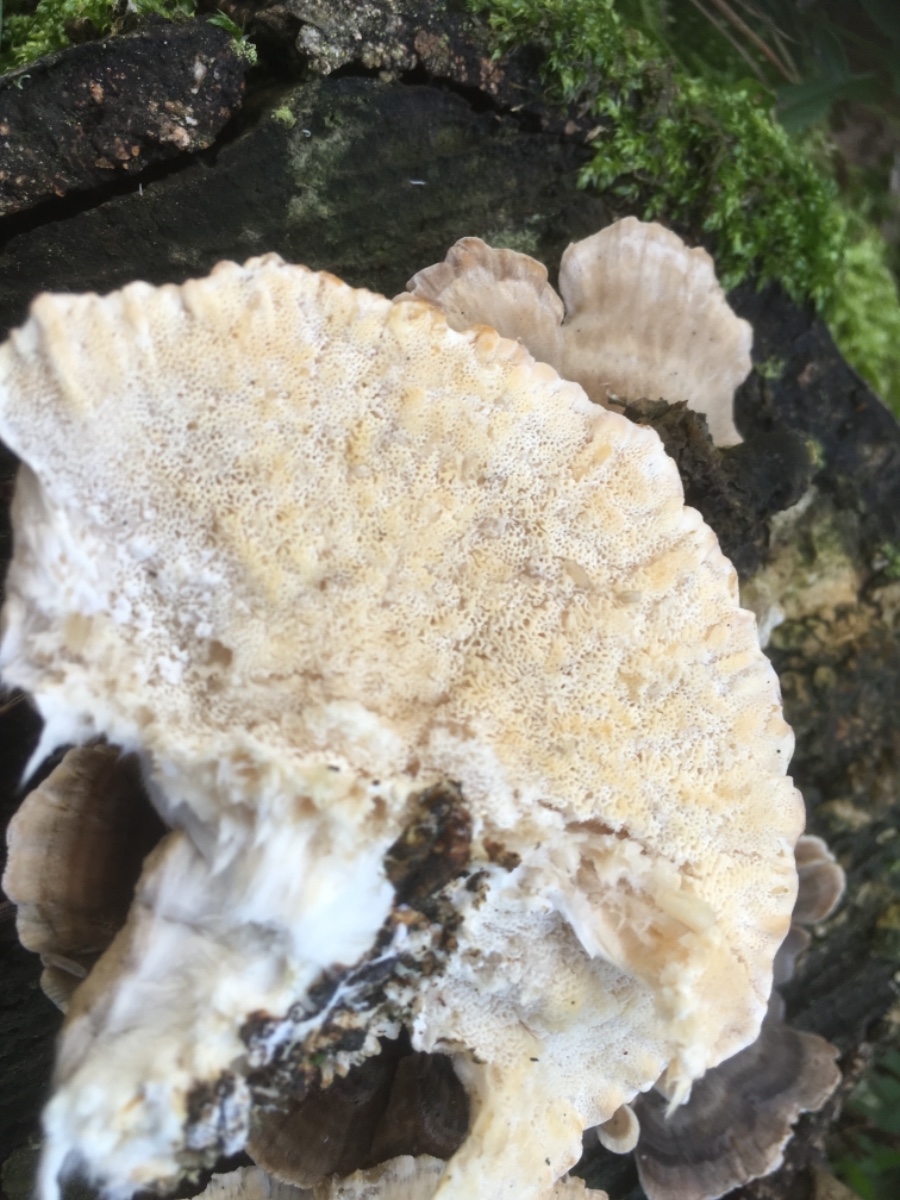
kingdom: Fungi
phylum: Basidiomycota
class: Agaricomycetes
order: Polyporales
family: Polyporaceae
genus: Trametes
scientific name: Trametes
